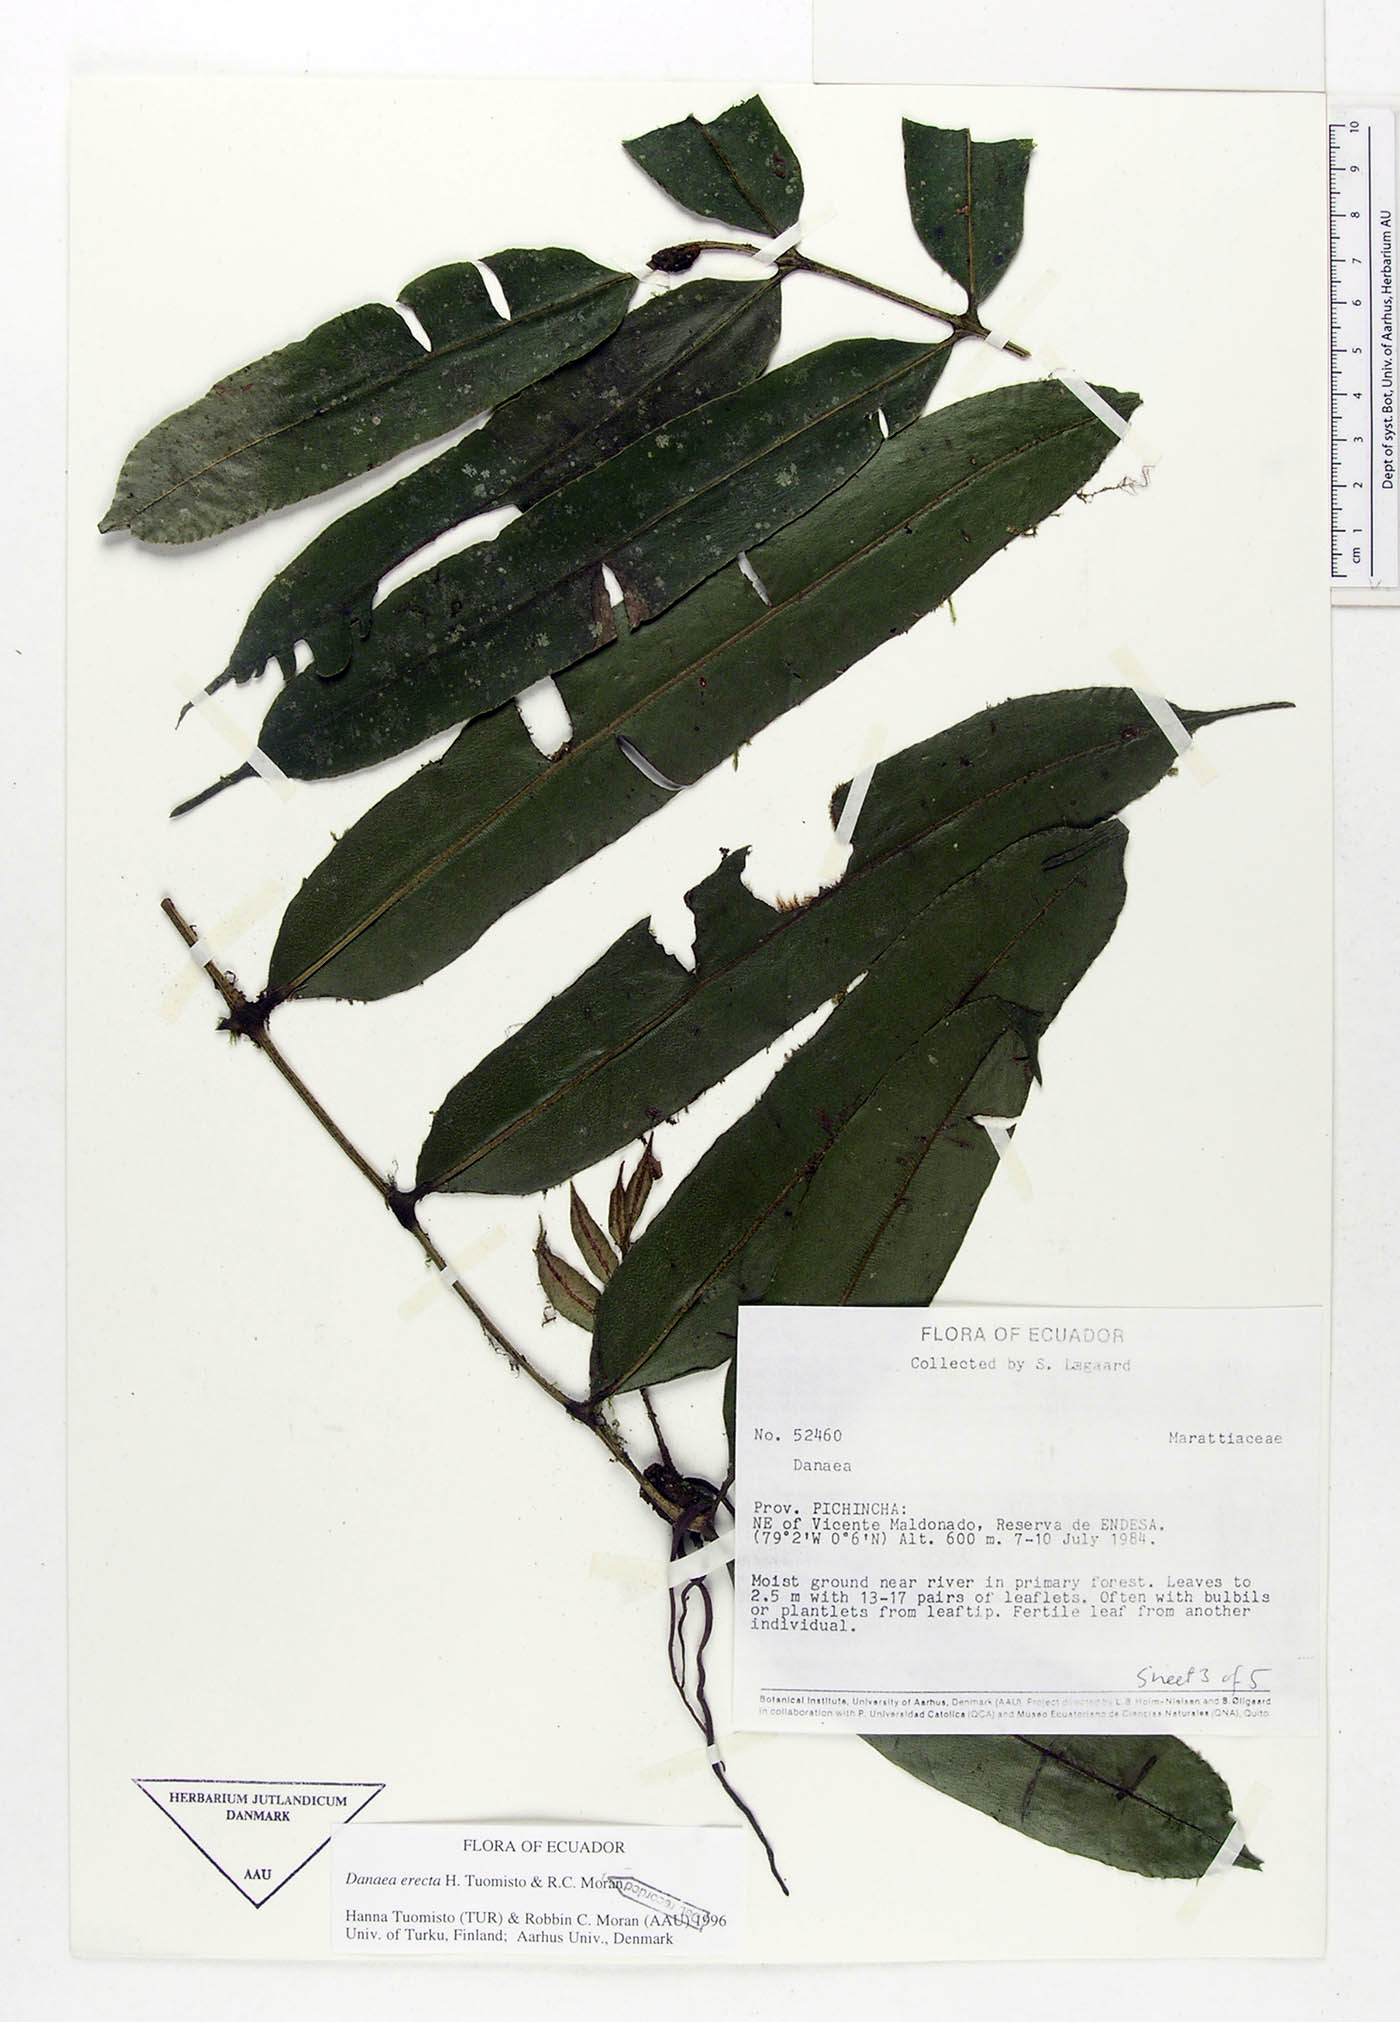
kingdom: Plantae
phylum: Tracheophyta
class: Polypodiopsida
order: Marattiales
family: Marattiaceae
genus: Danaea
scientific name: Danaea erecta
